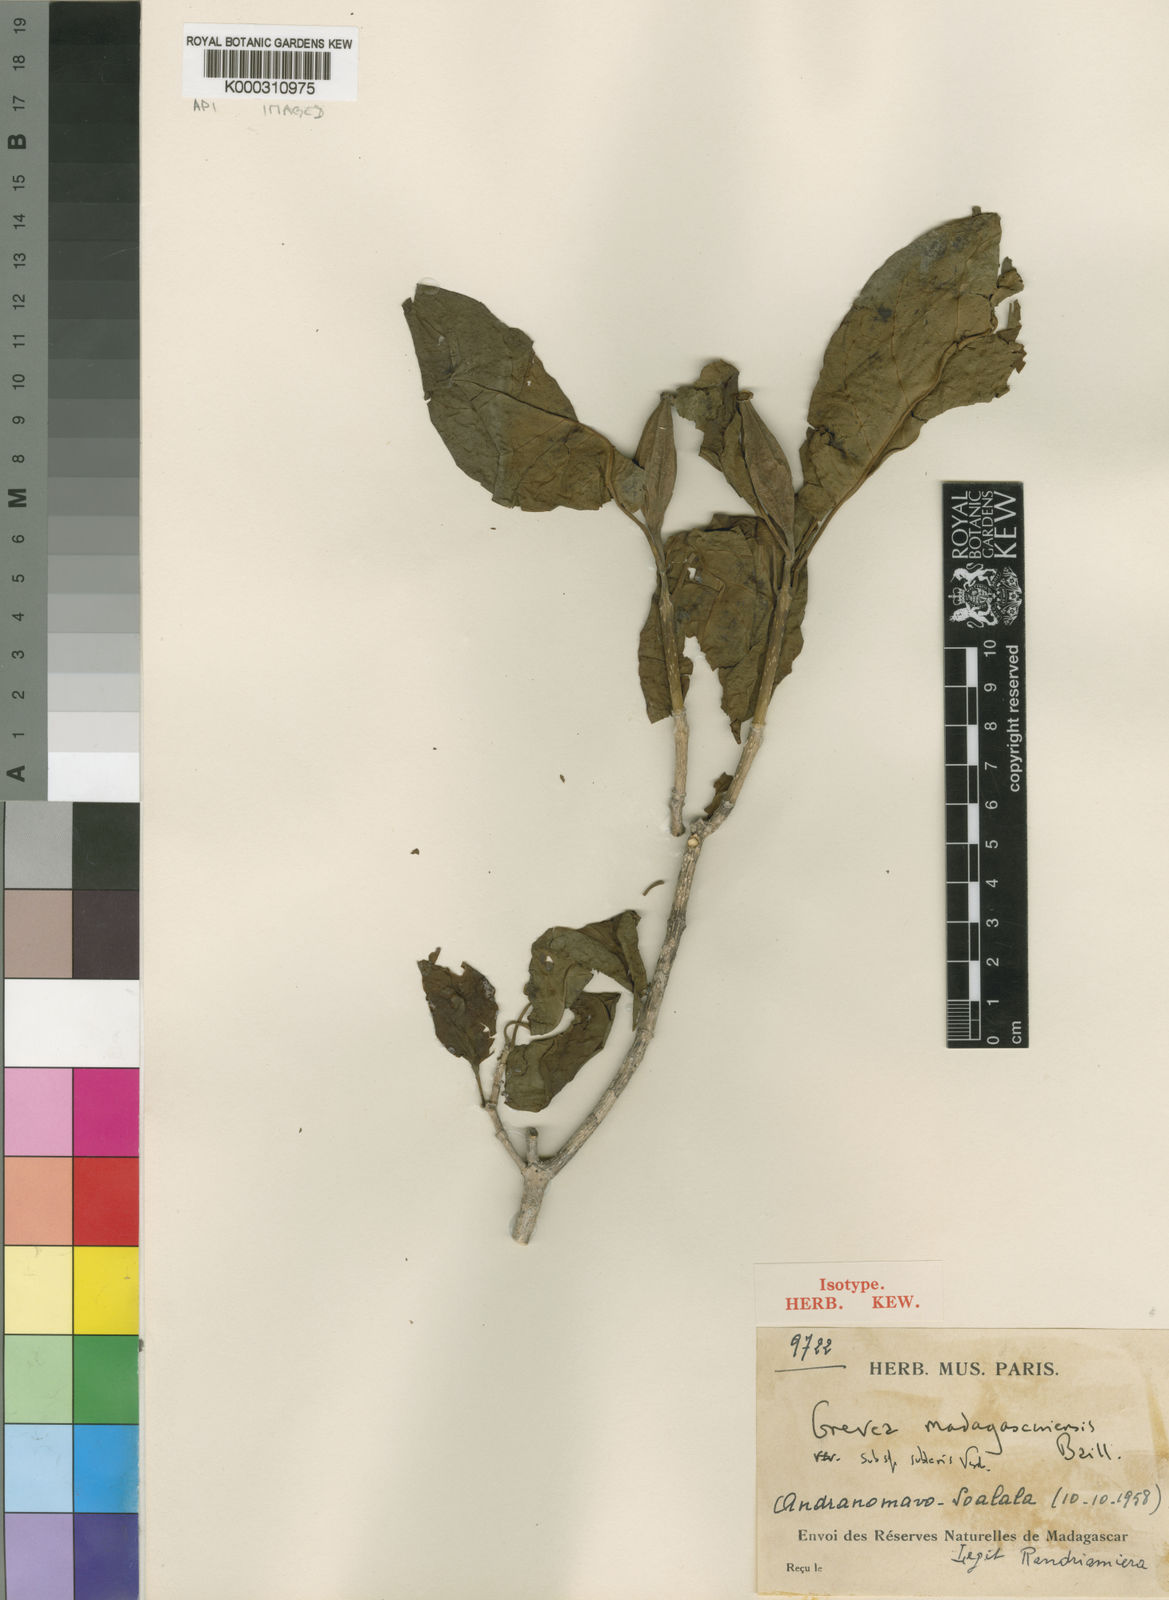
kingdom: Plantae
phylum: Tracheophyta
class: Magnoliopsida
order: Solanales
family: Montiniaceae
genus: Grevea
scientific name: Grevea madagascariensis
